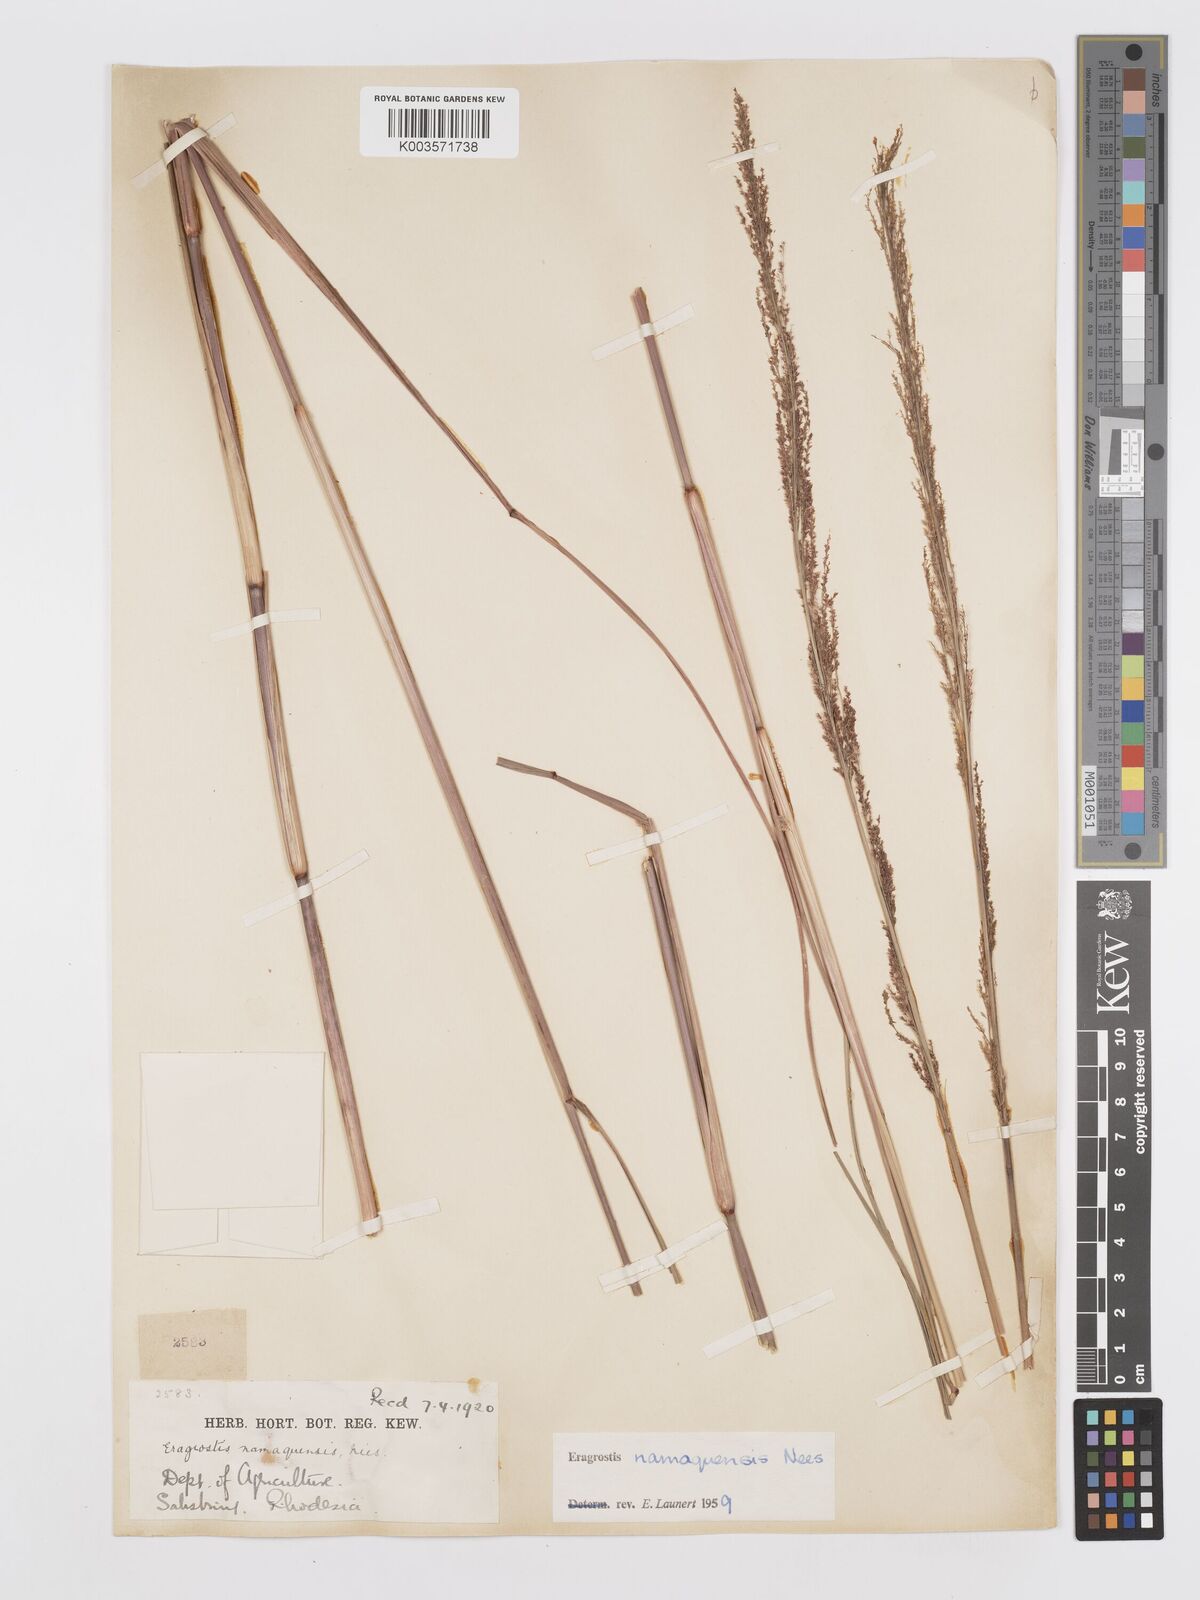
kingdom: Plantae
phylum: Tracheophyta
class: Liliopsida
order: Poales
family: Poaceae
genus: Eragrostis
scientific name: Eragrostis japonica
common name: Pond lovegrass
